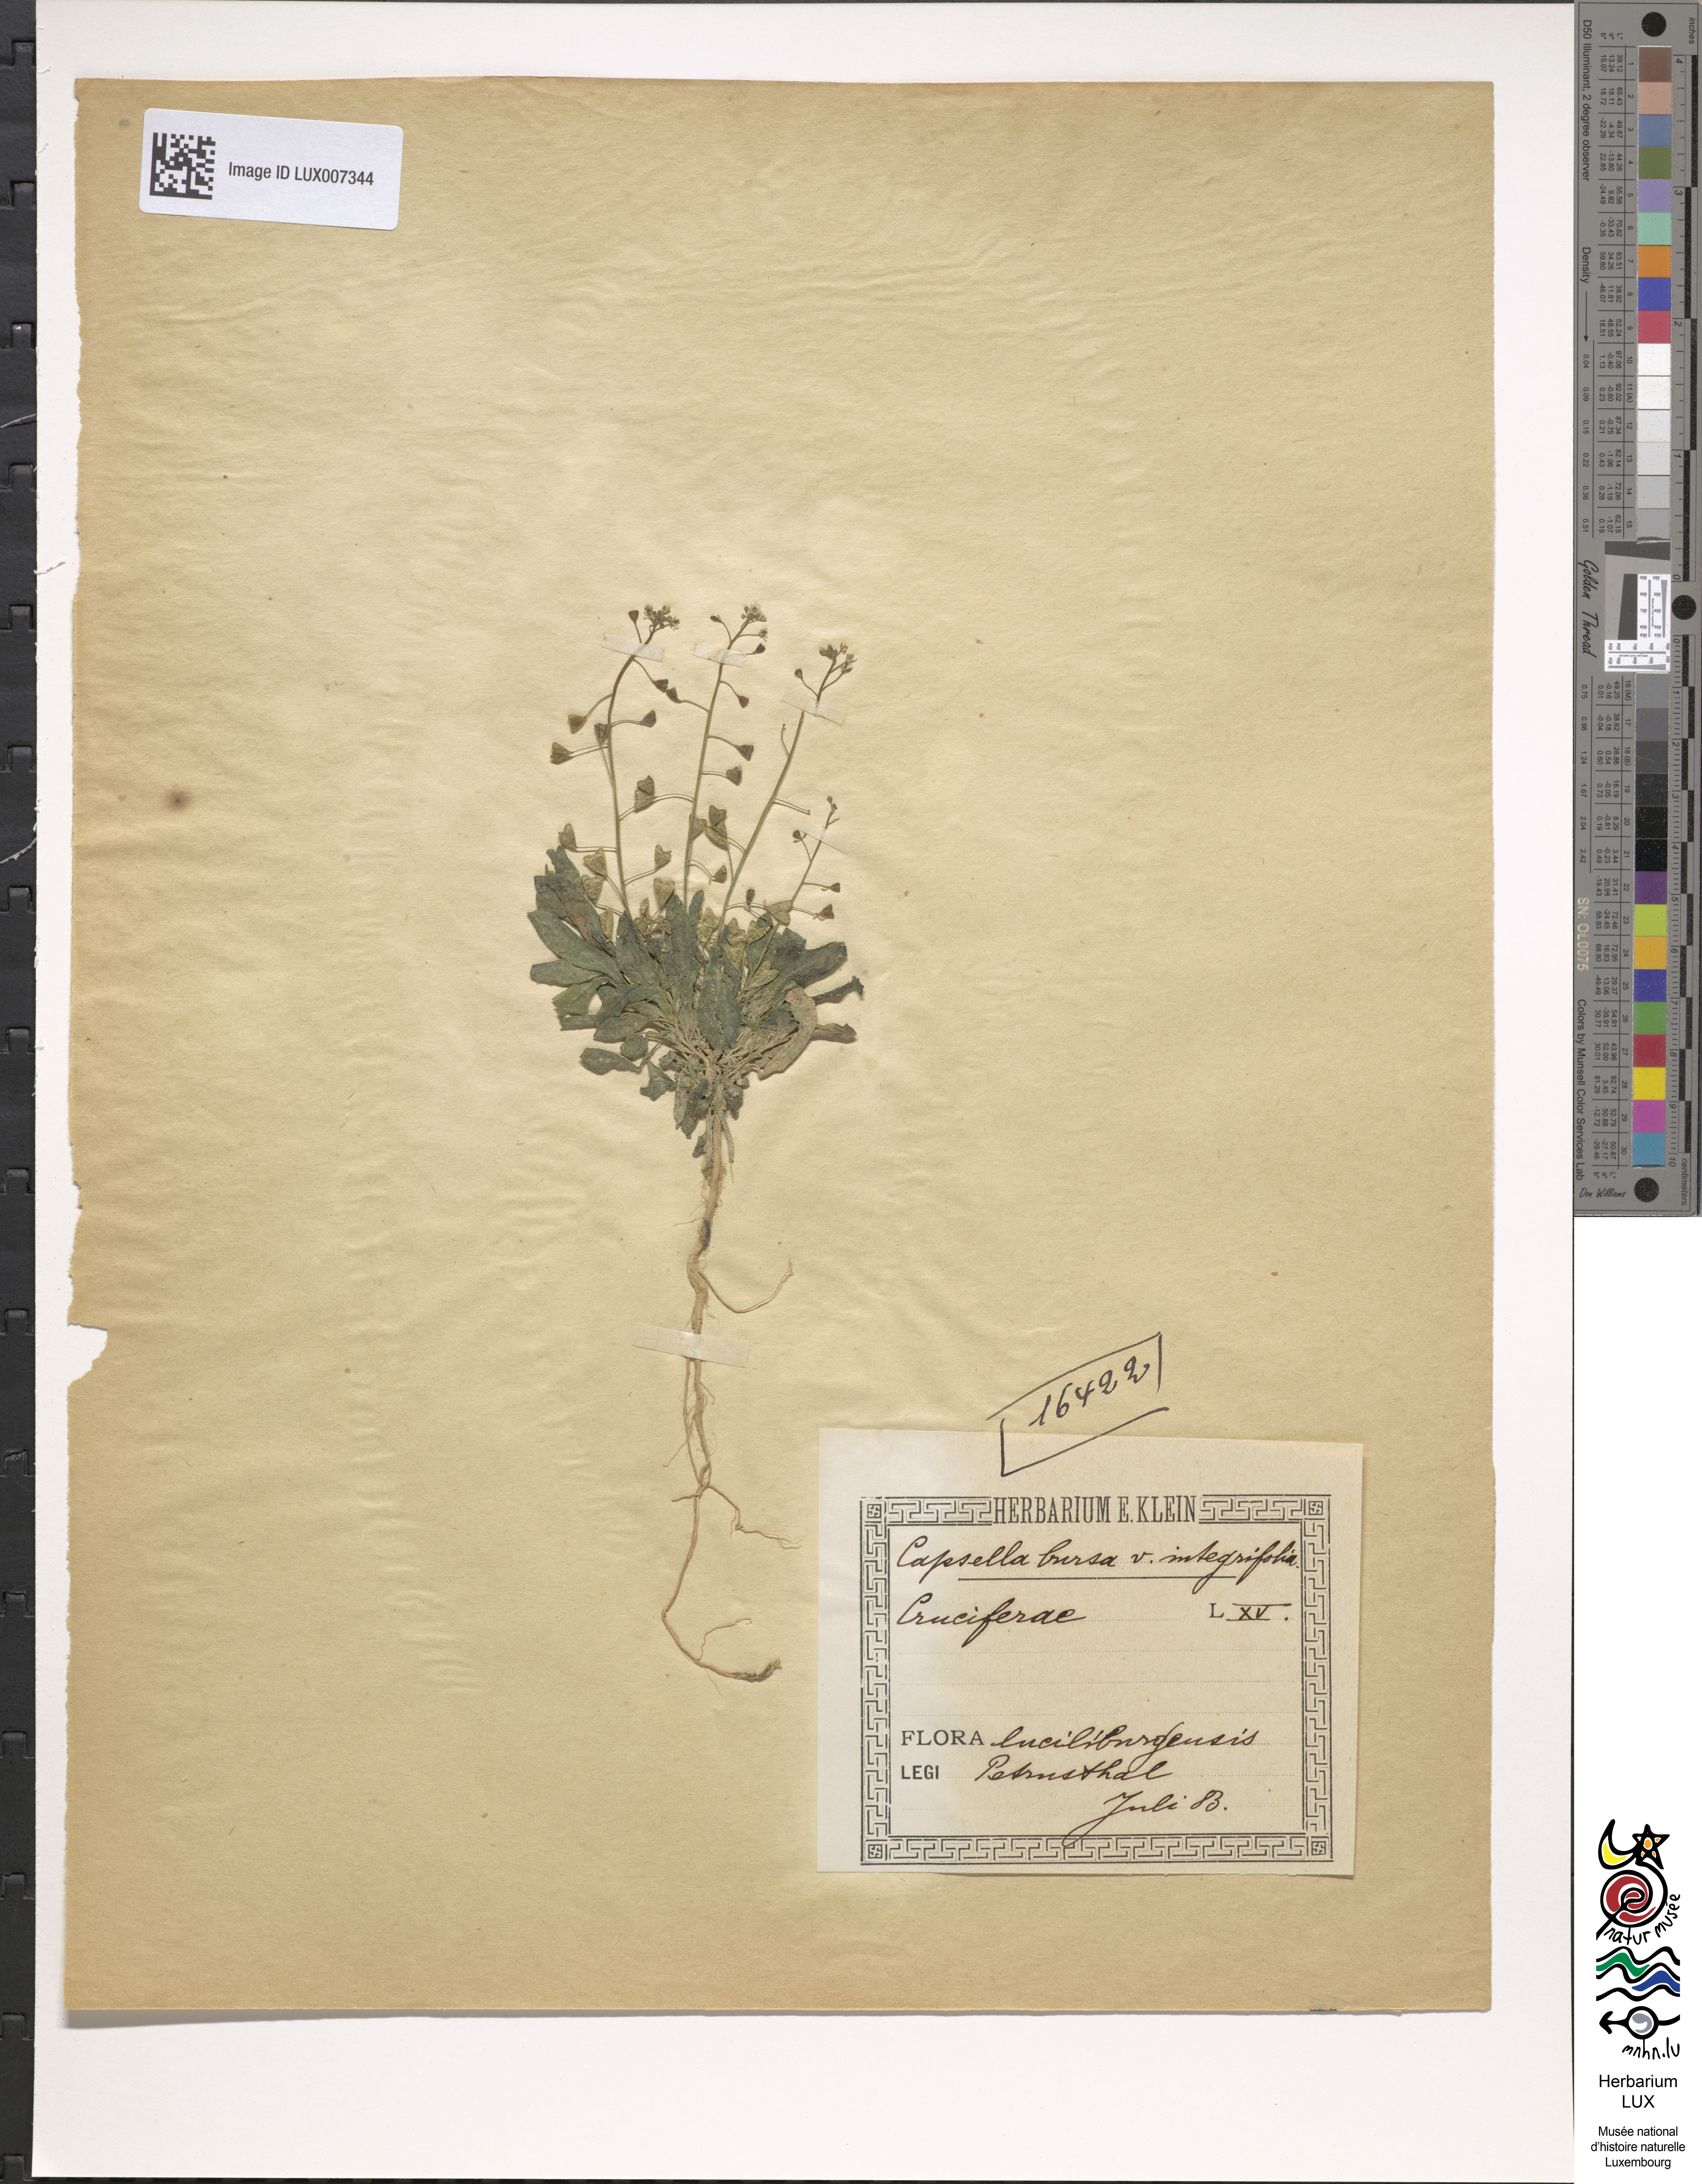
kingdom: Plantae
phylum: Tracheophyta
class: Magnoliopsida
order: Brassicales
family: Brassicaceae
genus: Capsella
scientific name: Capsella bursa-pastoris
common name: Shepherd's purse
